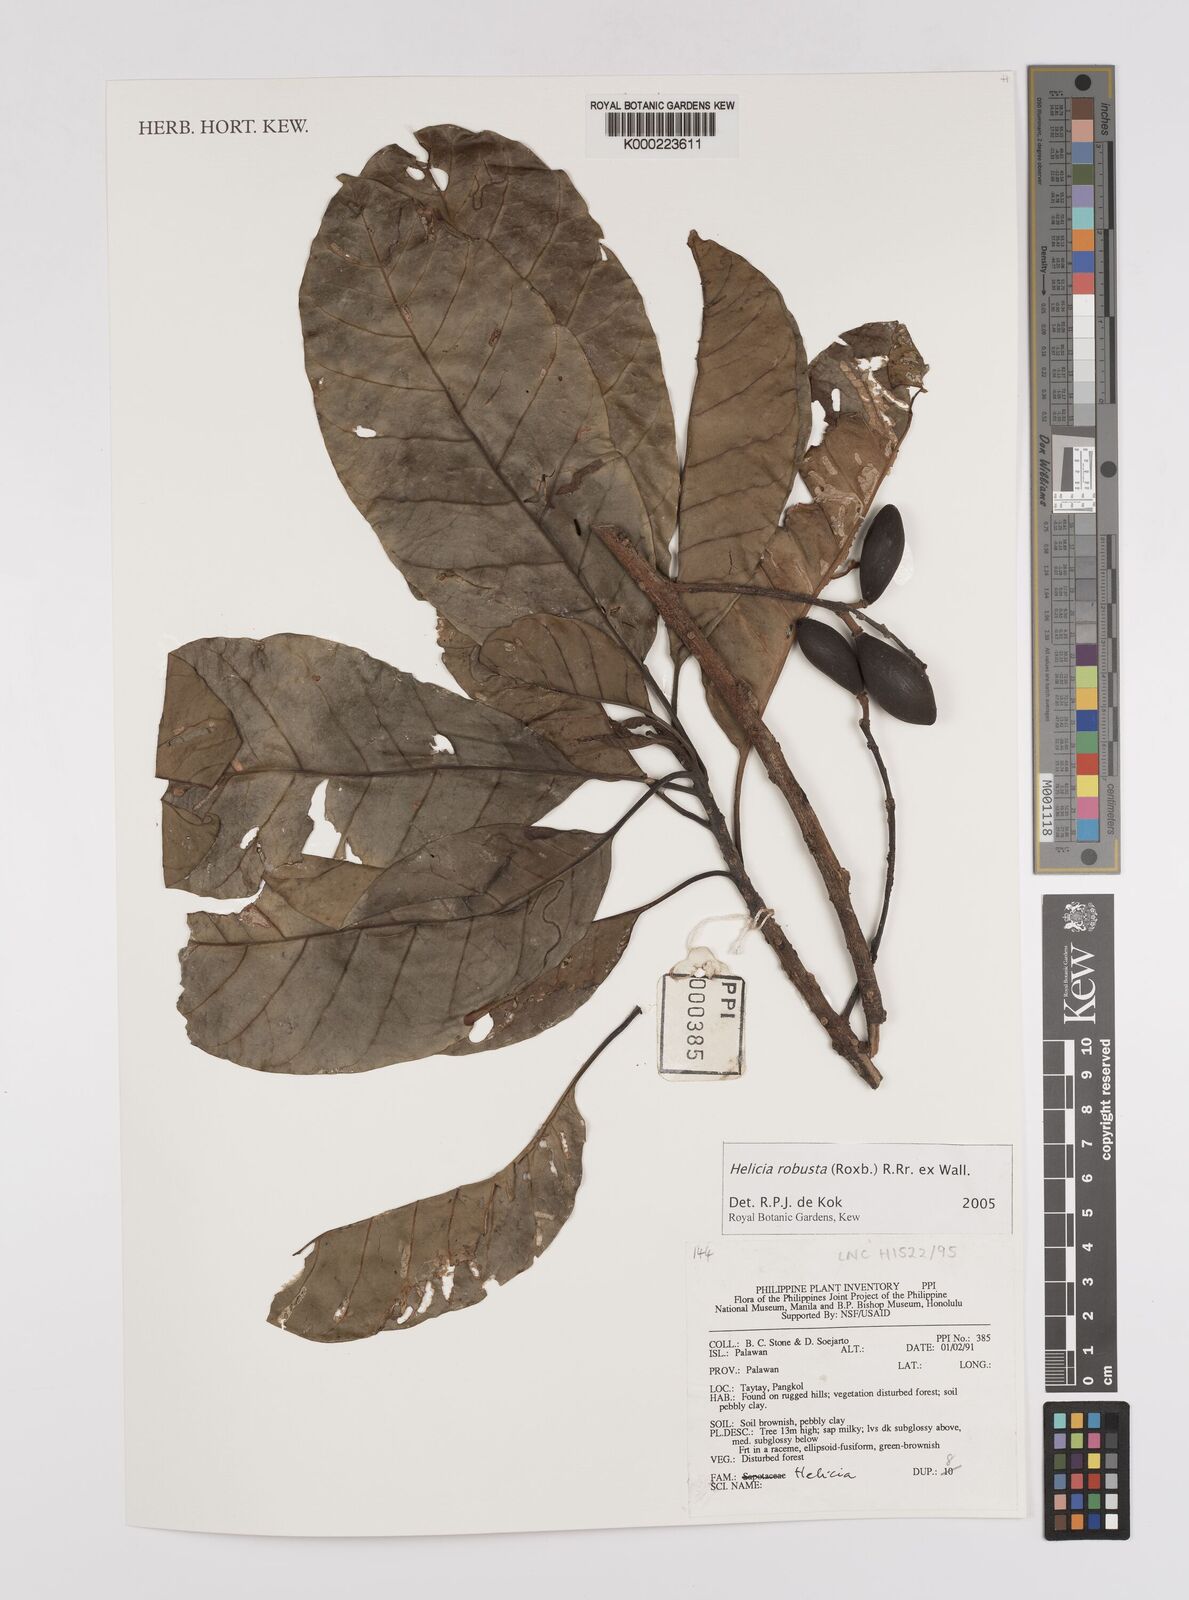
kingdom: Plantae
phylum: Tracheophyta
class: Magnoliopsida
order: Proteales
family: Proteaceae
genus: Helicia
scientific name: Helicia
